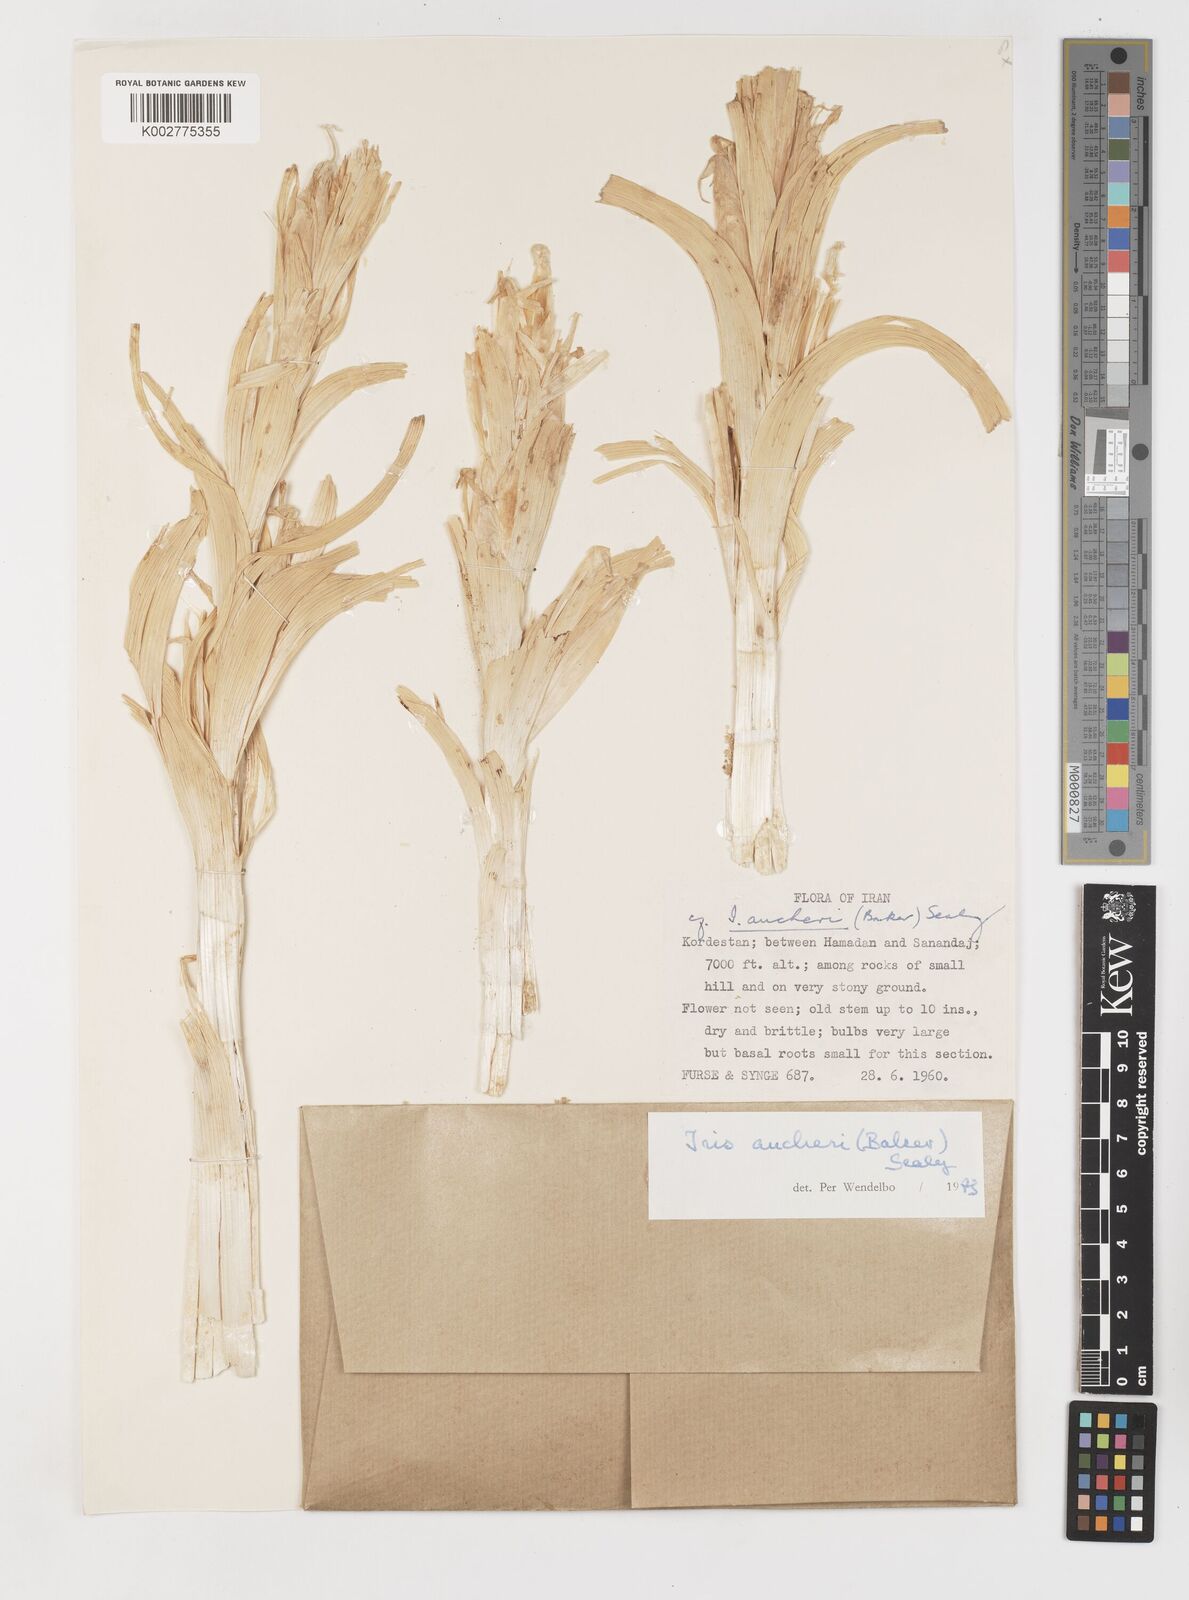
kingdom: Plantae
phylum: Tracheophyta
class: Liliopsida
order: Asparagales
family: Iridaceae
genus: Iris
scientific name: Iris aucheri
